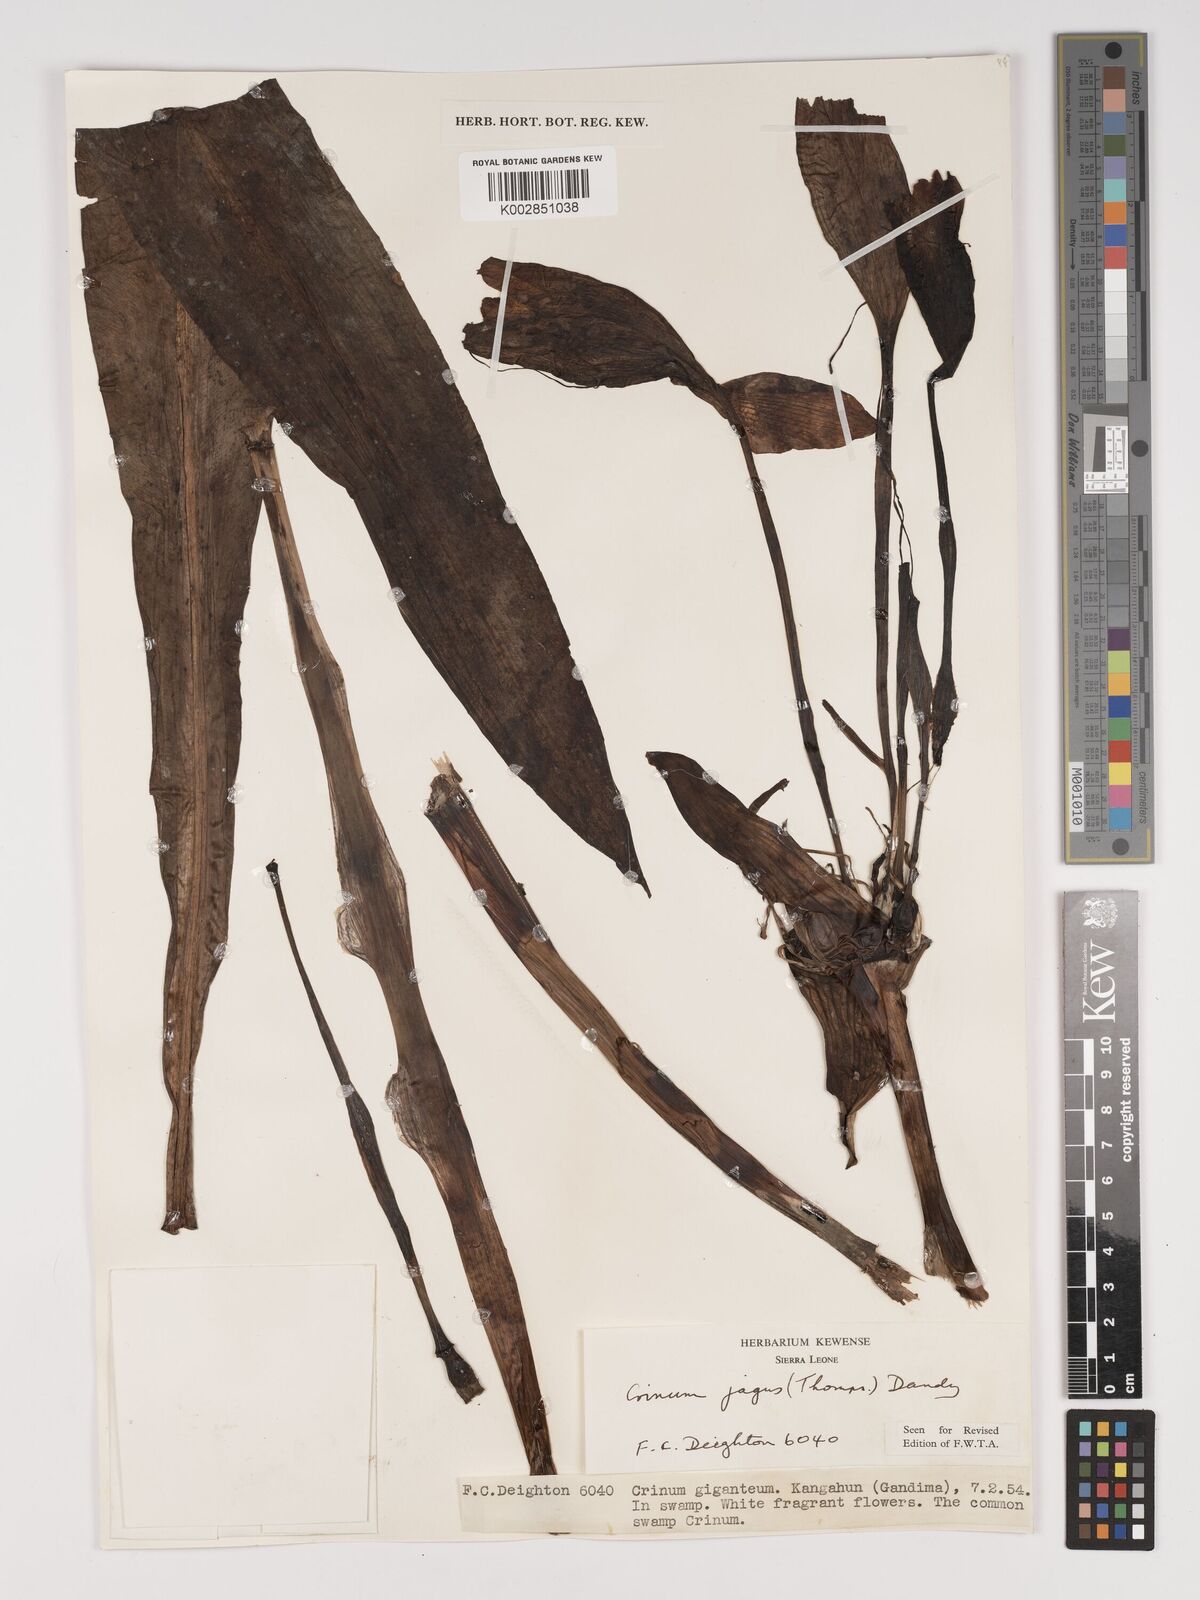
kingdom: Plantae
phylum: Tracheophyta
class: Liliopsida
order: Asparagales
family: Amaryllidaceae
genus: Crinum
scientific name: Crinum jagus
